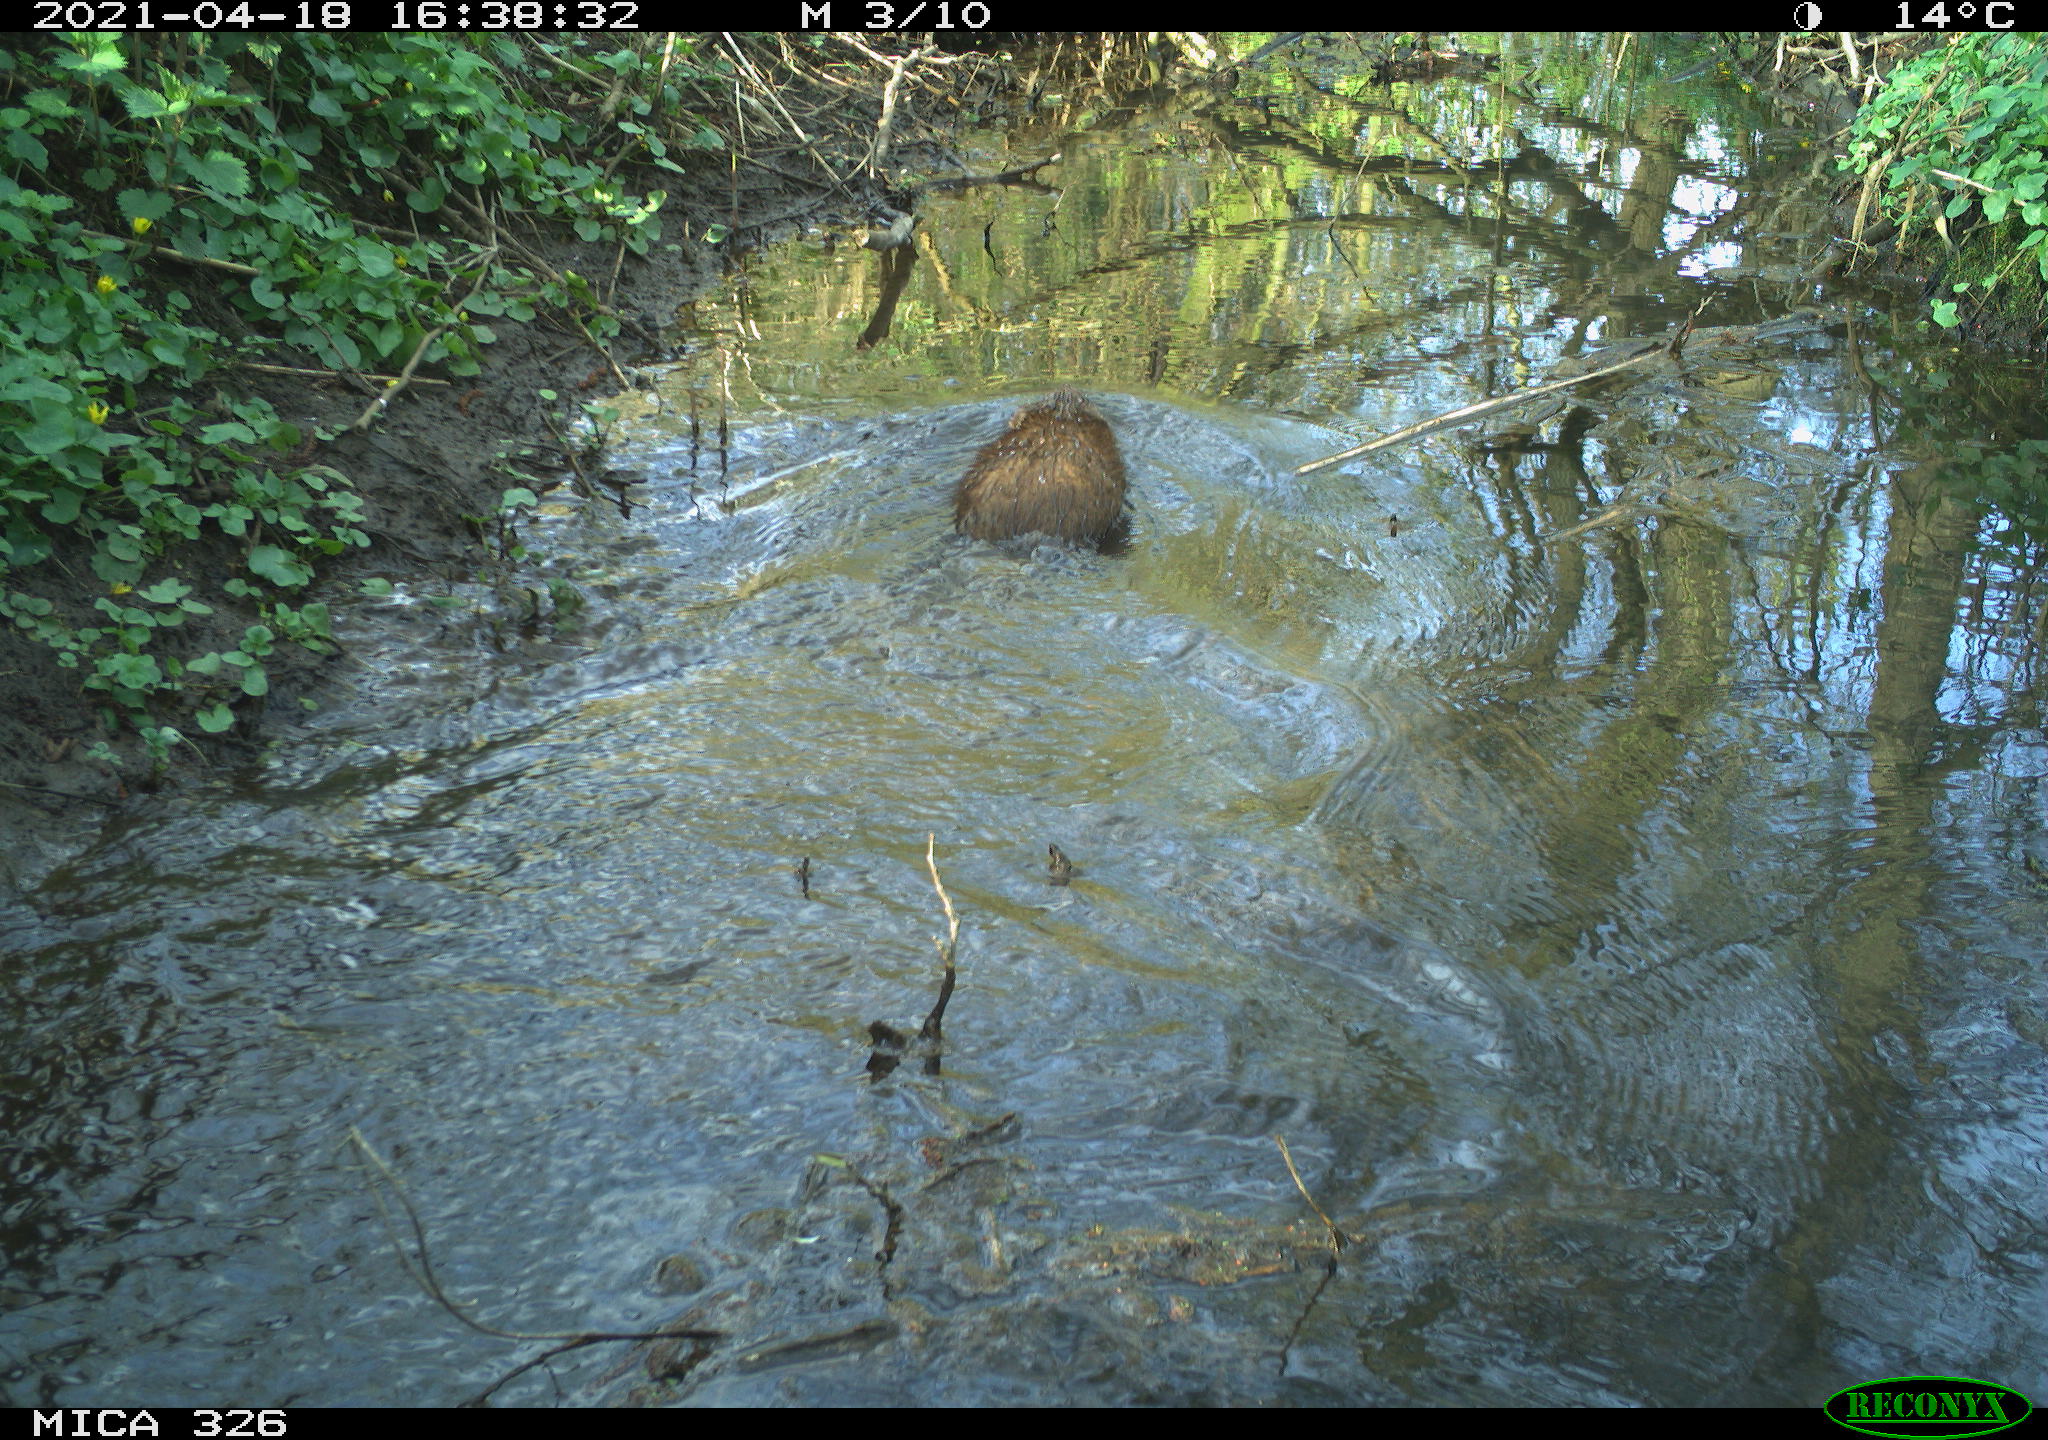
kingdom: Animalia
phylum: Chordata
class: Mammalia
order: Rodentia
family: Cricetidae
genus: Ondatra
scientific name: Ondatra zibethicus
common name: Muskrat
